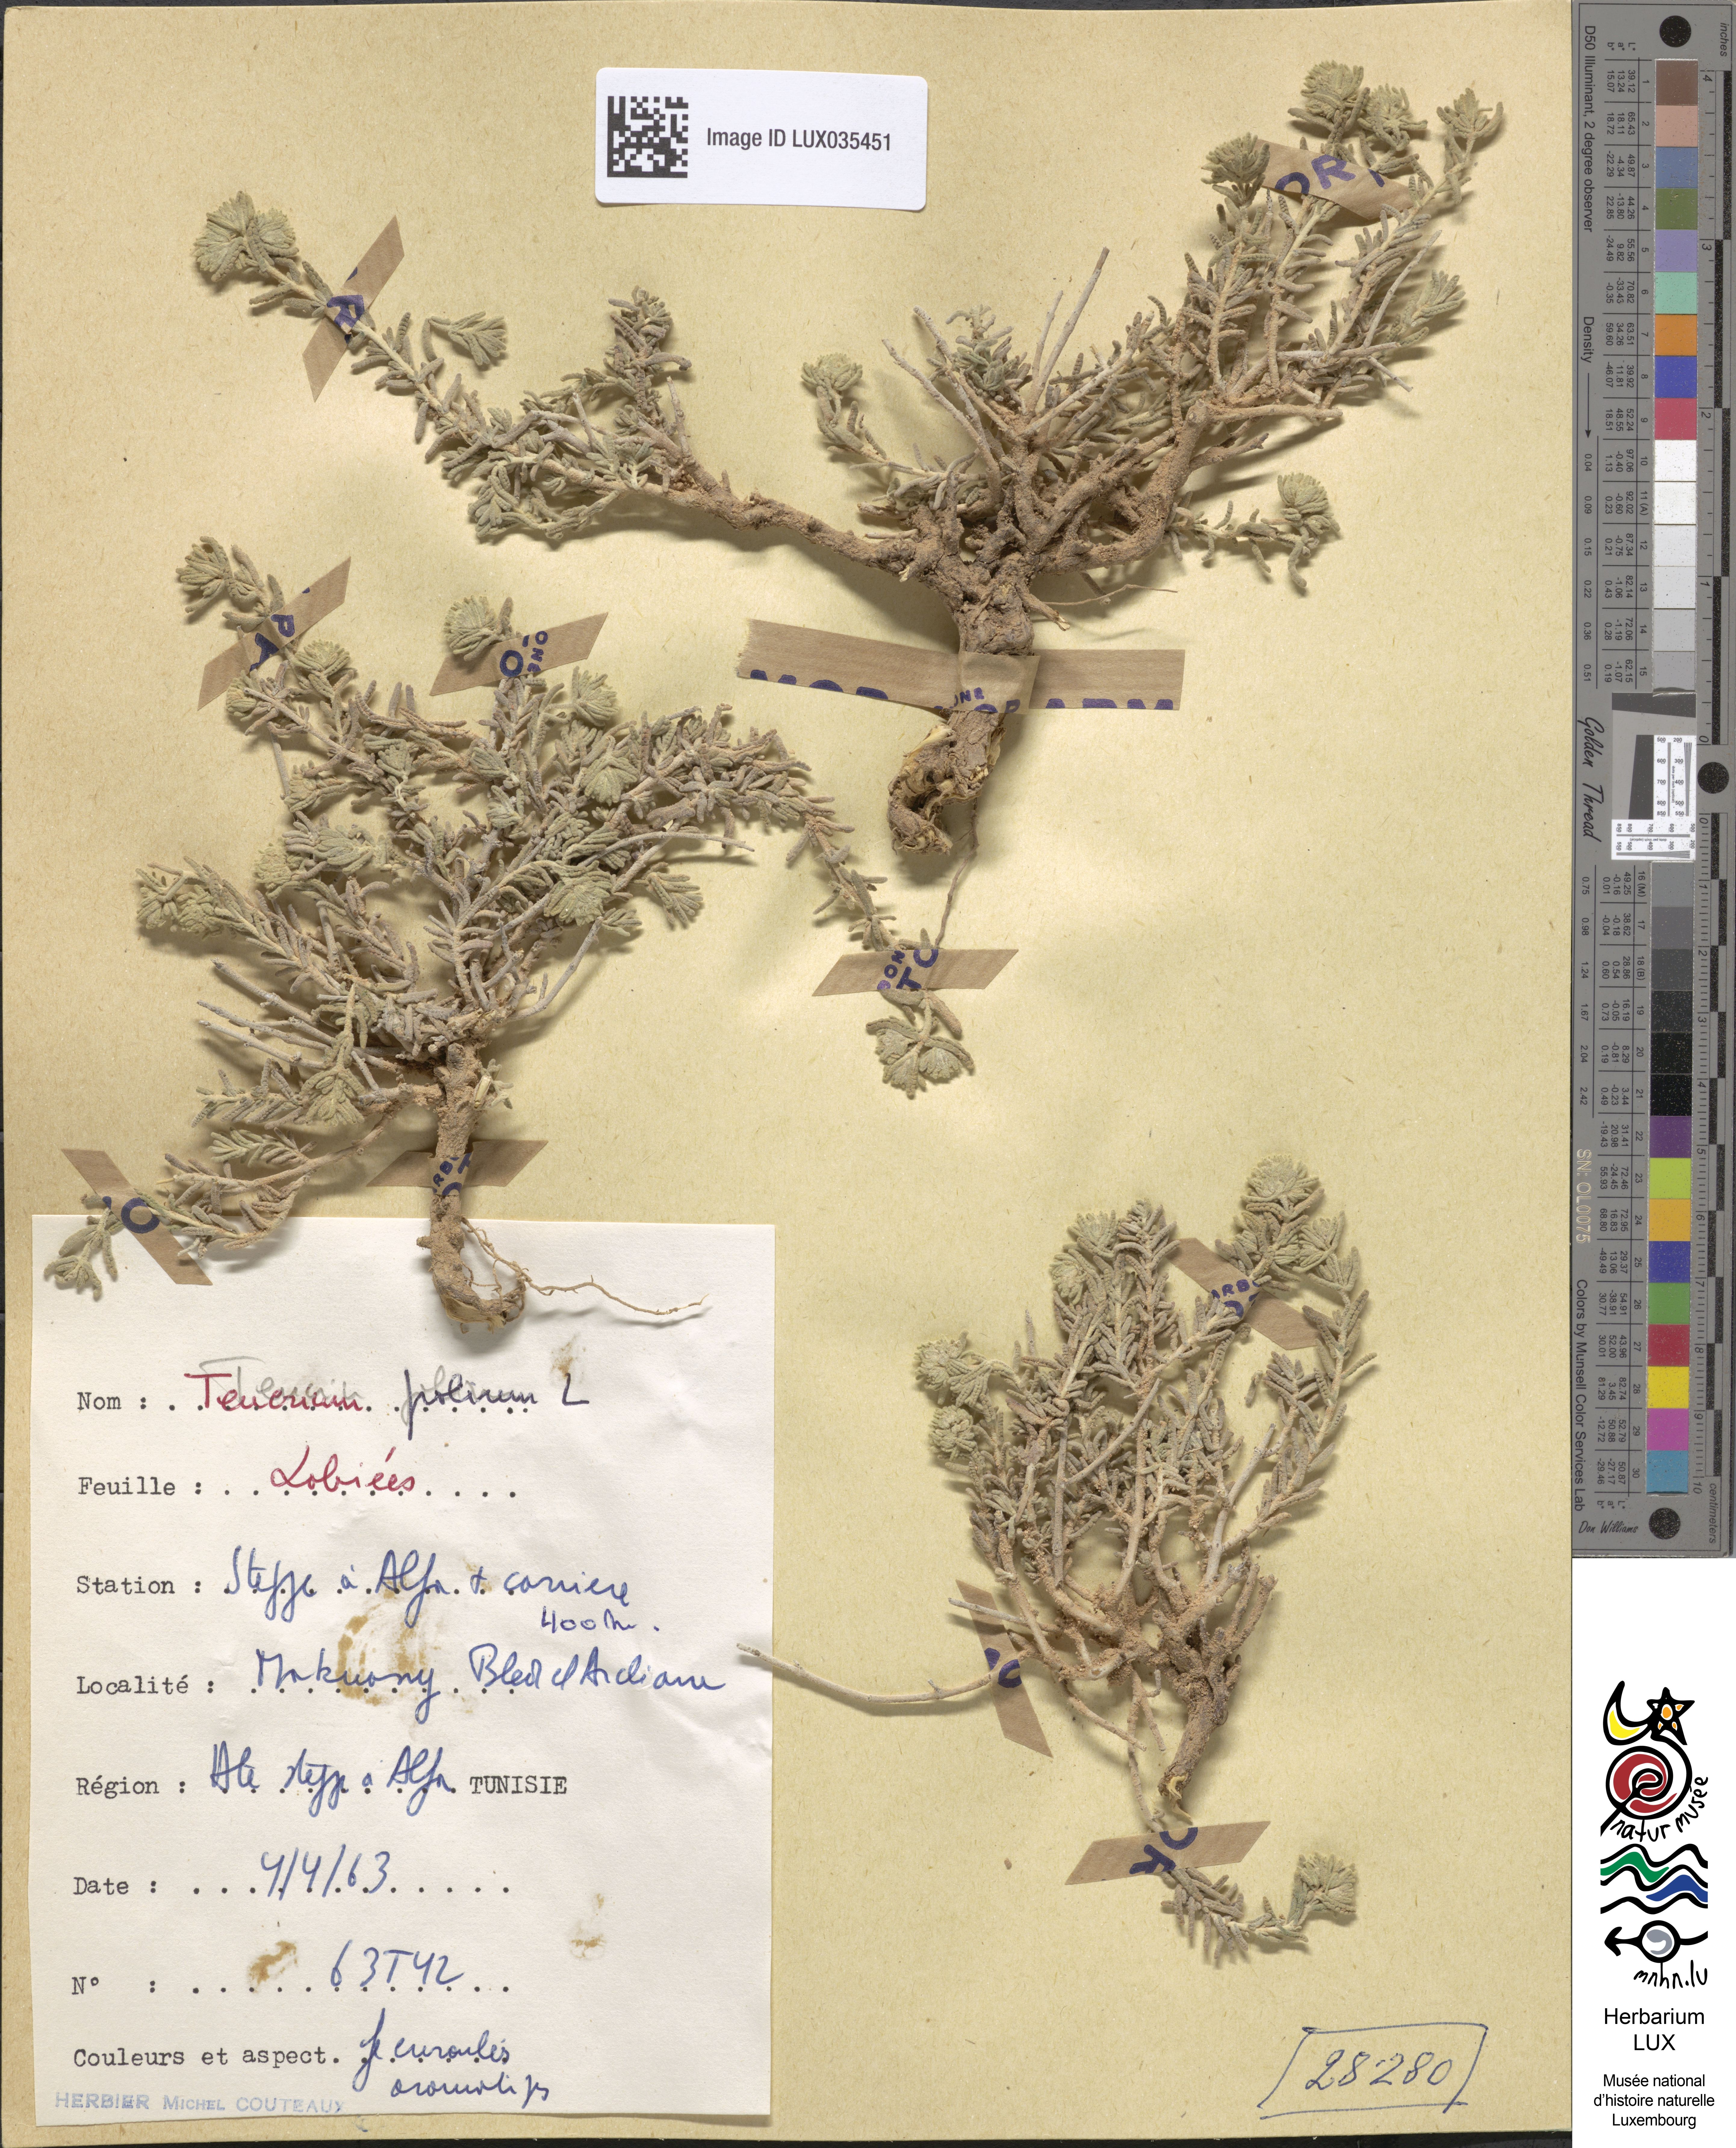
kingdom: Plantae
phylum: Tracheophyta
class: Magnoliopsida
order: Lamiales
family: Lamiaceae
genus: Teucrium
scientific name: Teucrium polium
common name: Poley
